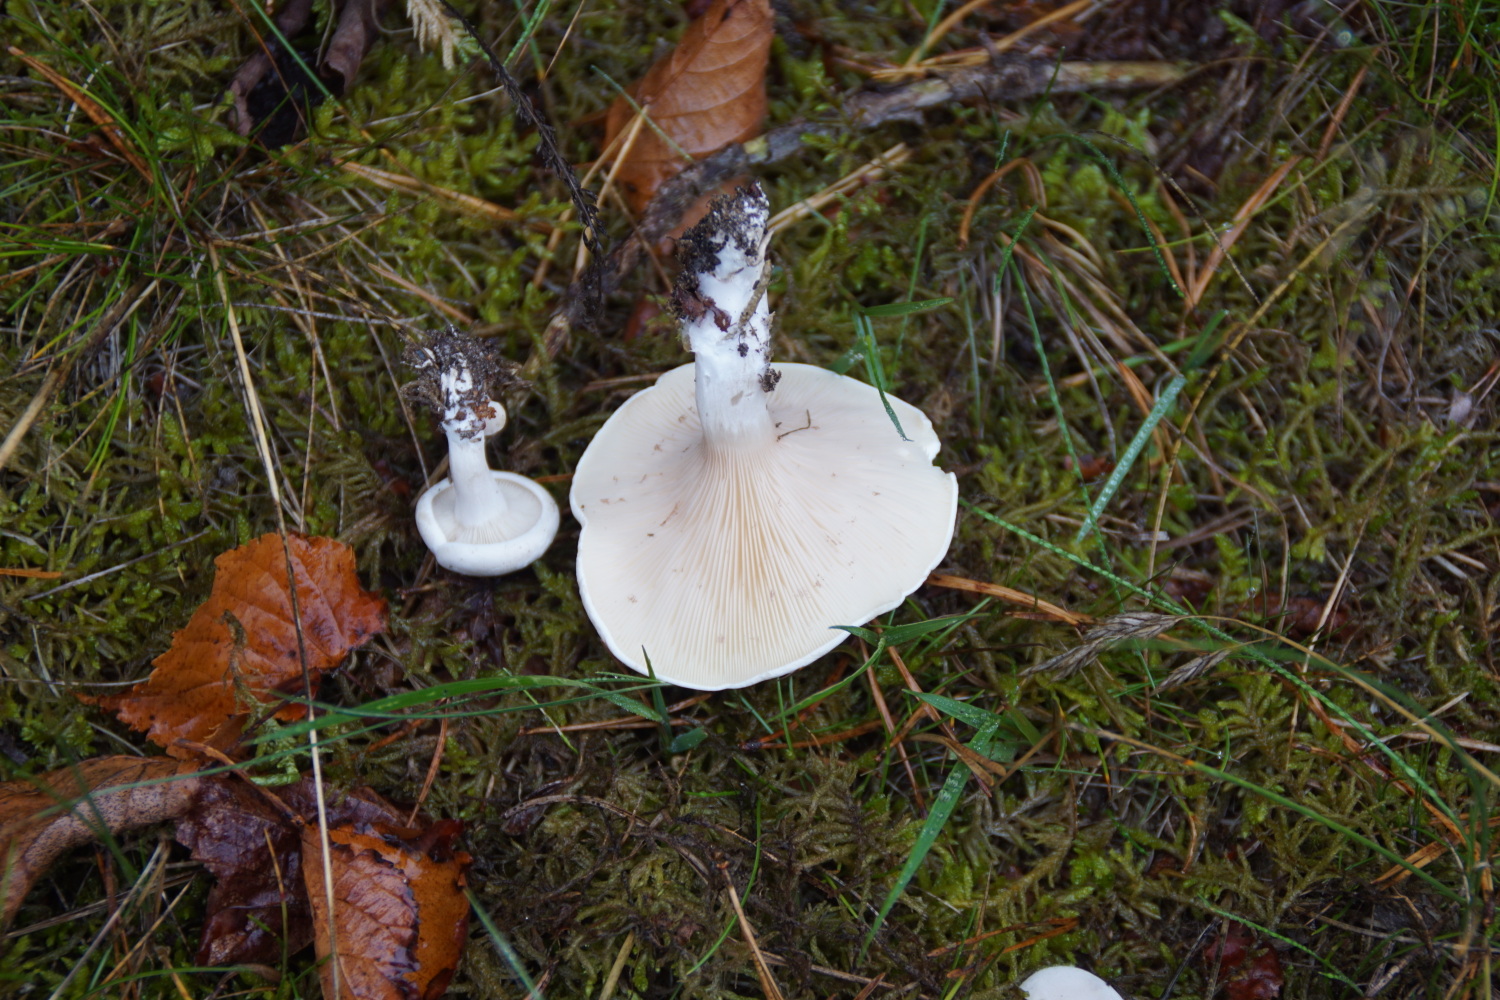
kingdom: Fungi
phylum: Basidiomycota
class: Agaricomycetes
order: Agaricales
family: Entolomataceae
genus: Clitopilus
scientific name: Clitopilus prunulus
